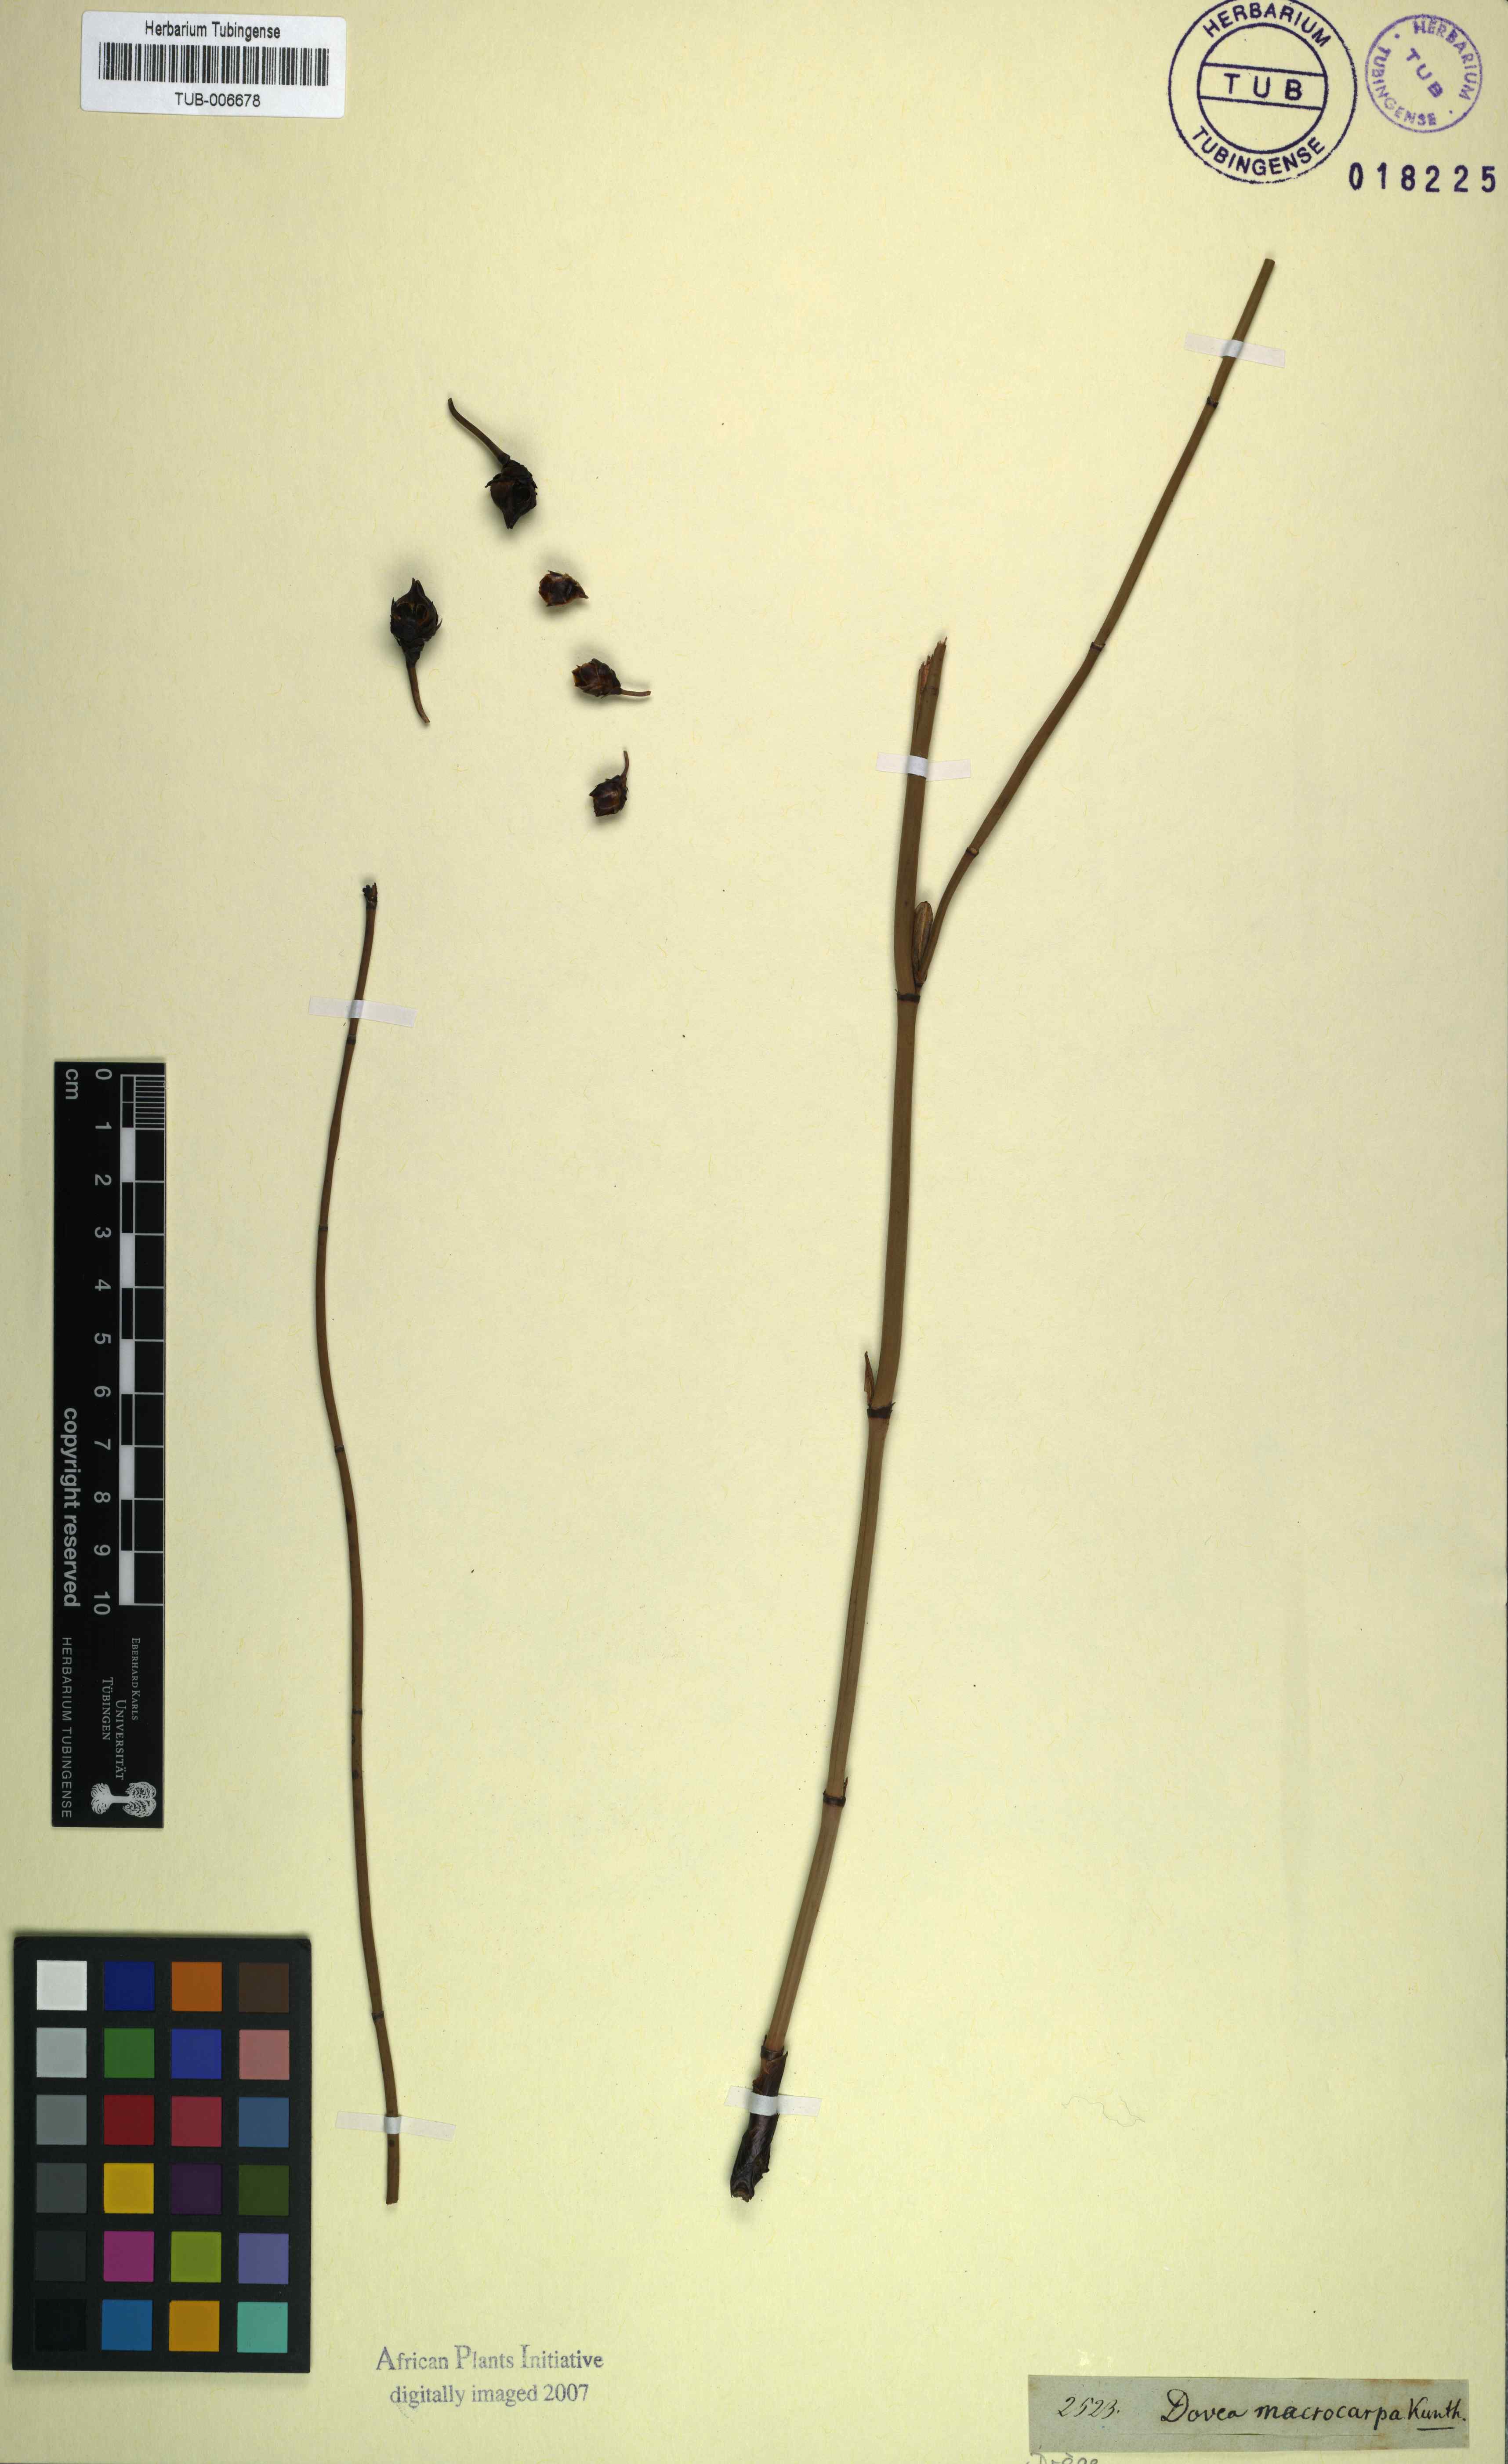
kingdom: Plantae
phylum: Tracheophyta
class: Liliopsida
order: Poales
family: Restionaceae
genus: Elegia
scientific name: Elegia macrocarpa
